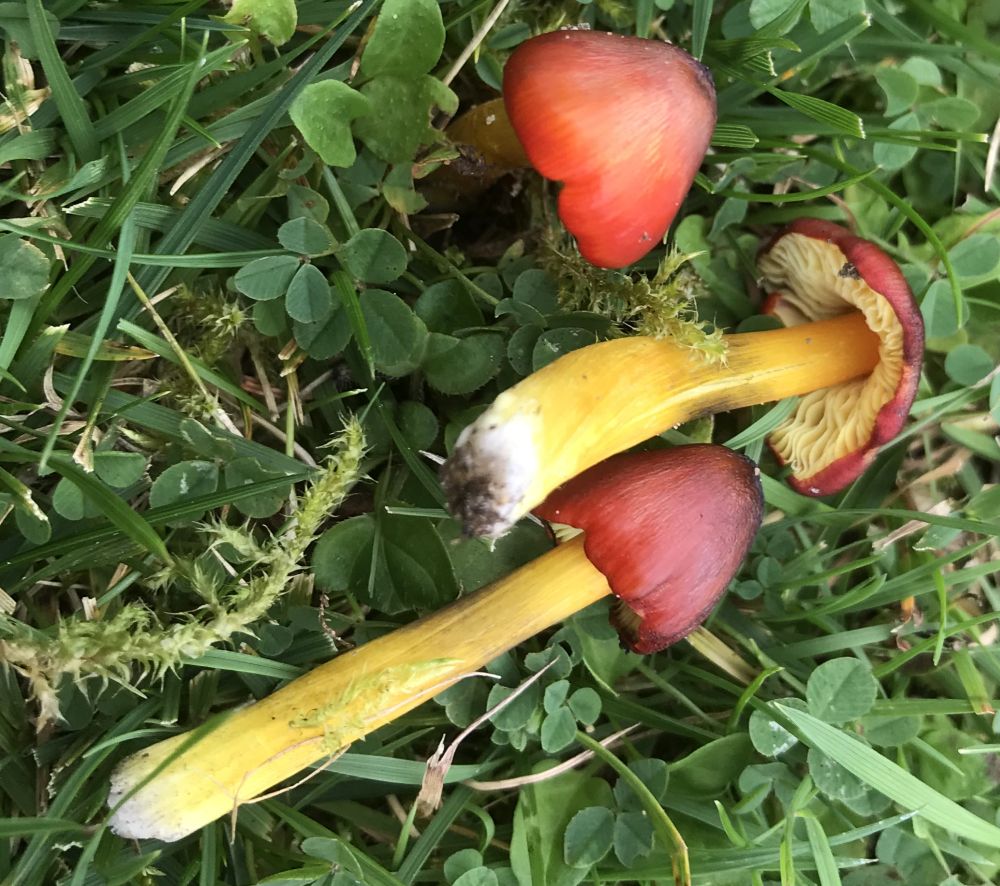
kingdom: Fungi
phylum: Basidiomycota
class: Agaricomycetes
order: Agaricales
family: Hygrophoraceae
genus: Hygrocybe
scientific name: Hygrocybe conica
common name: kegle-vokshat
